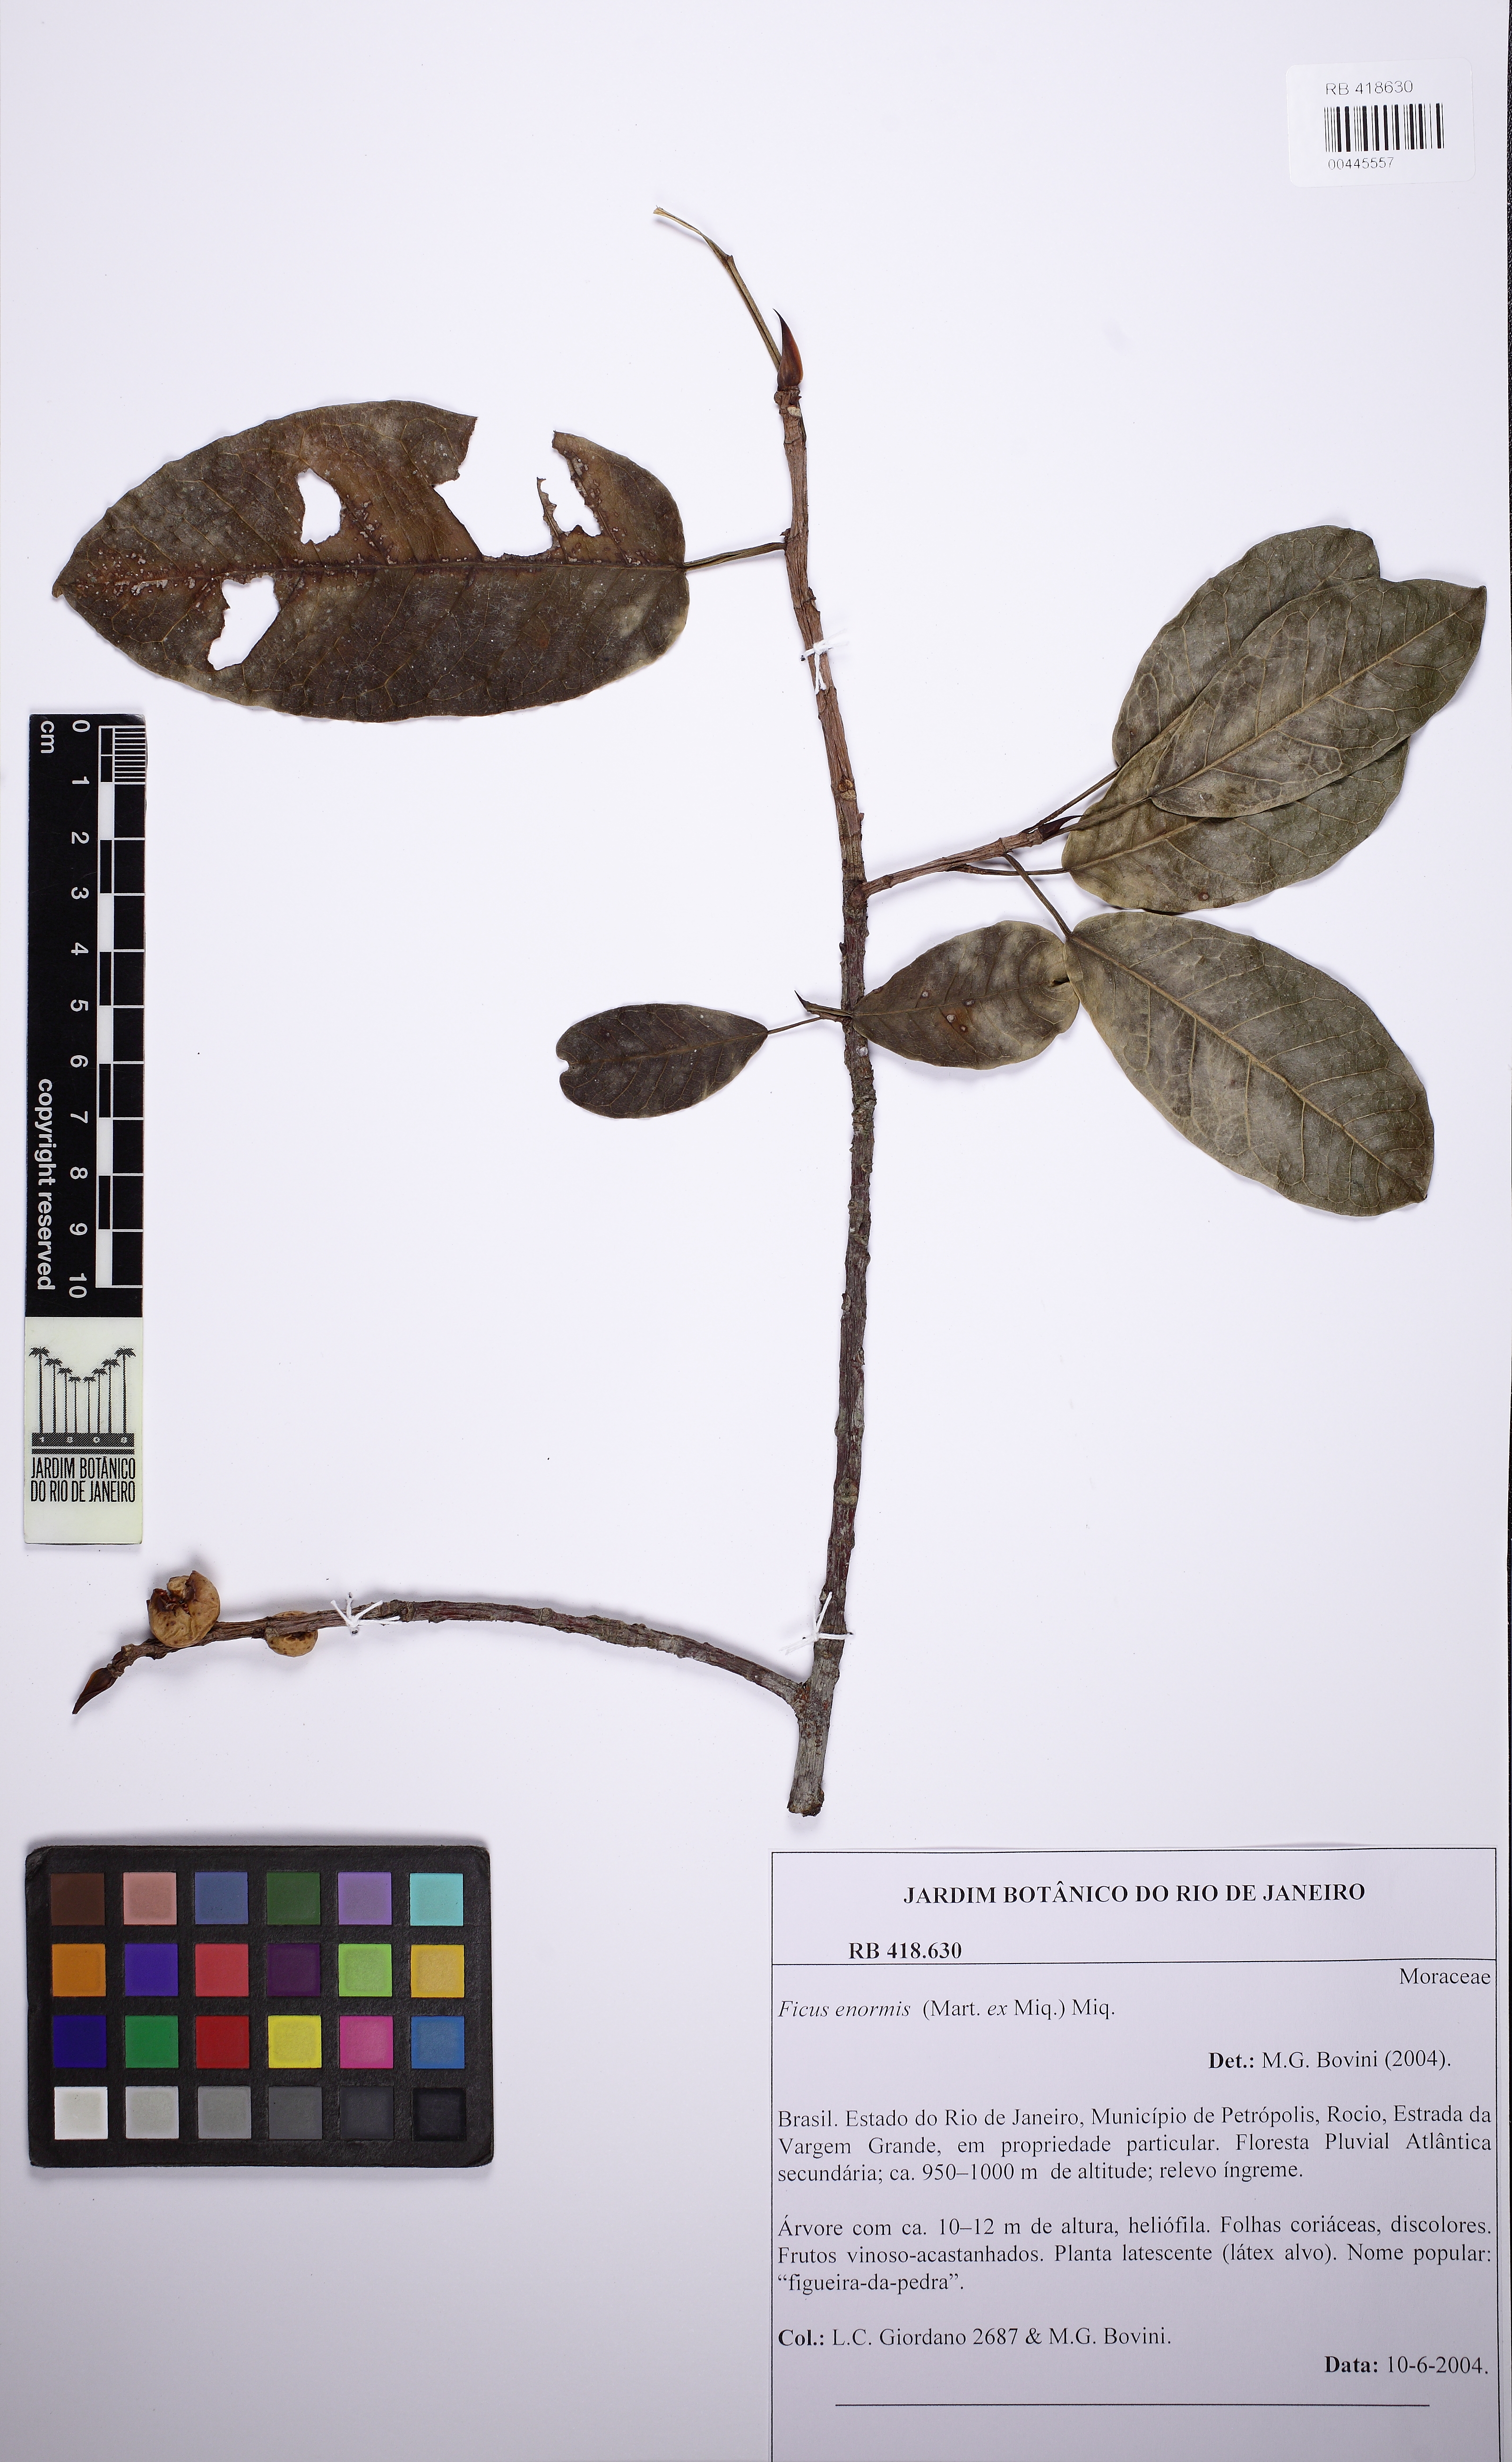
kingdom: Plantae
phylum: Tracheophyta
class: Magnoliopsida
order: Rosales
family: Moraceae
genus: Ficus
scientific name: Ficus luschnathiana
